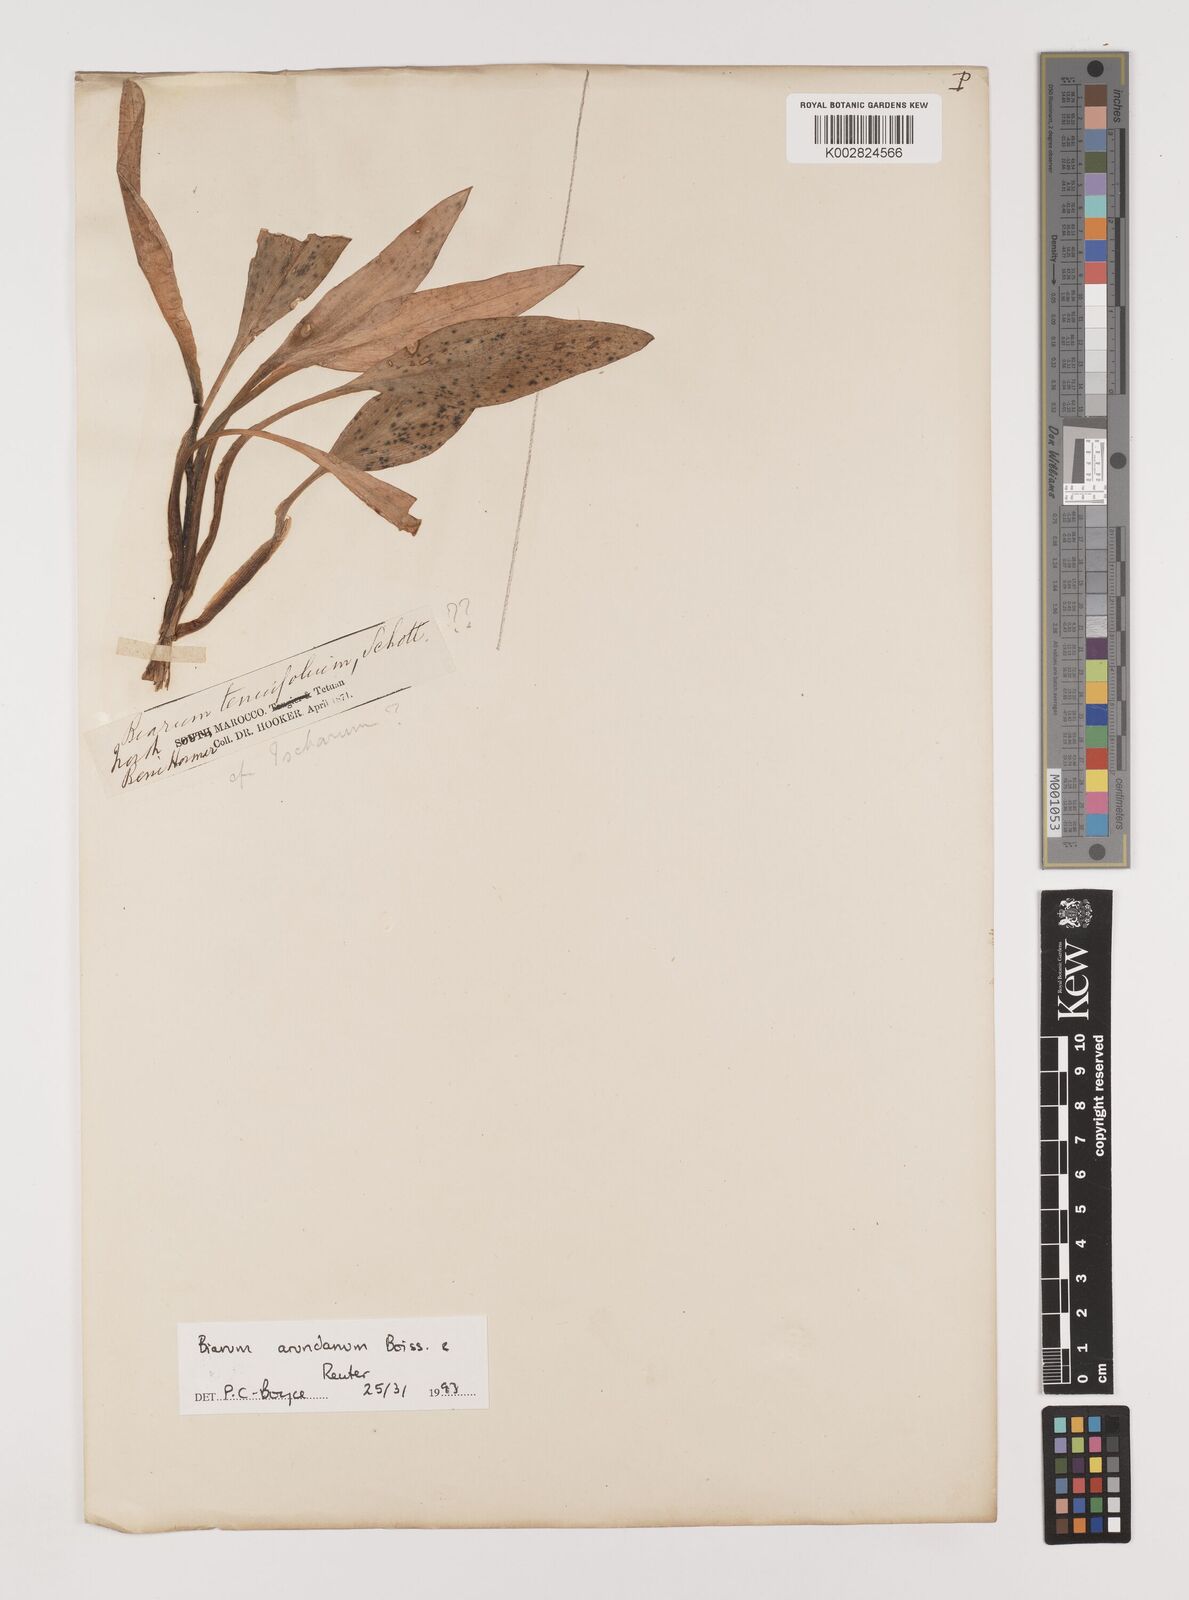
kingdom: Plantae
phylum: Tracheophyta
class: Liliopsida
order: Alismatales
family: Araceae
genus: Biarum
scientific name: Biarum tenuifolium
